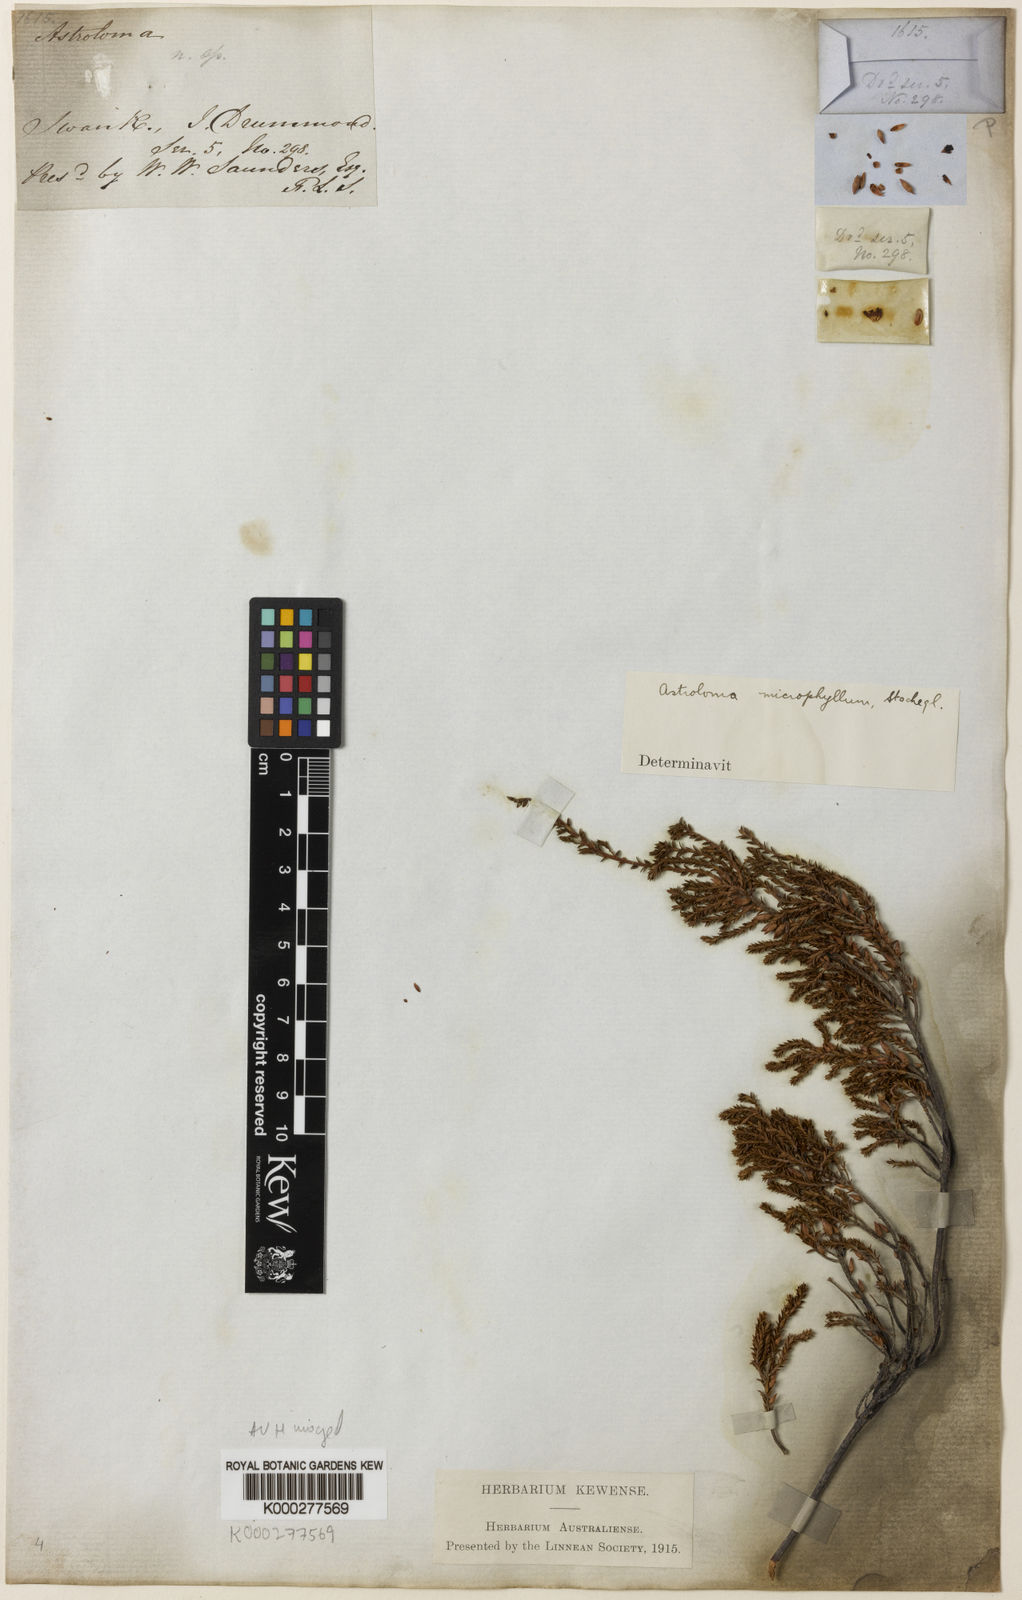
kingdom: Plantae
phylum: Tracheophyta
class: Magnoliopsida
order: Ericales
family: Ericaceae
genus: Styphelia
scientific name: Styphelia pentapogona
